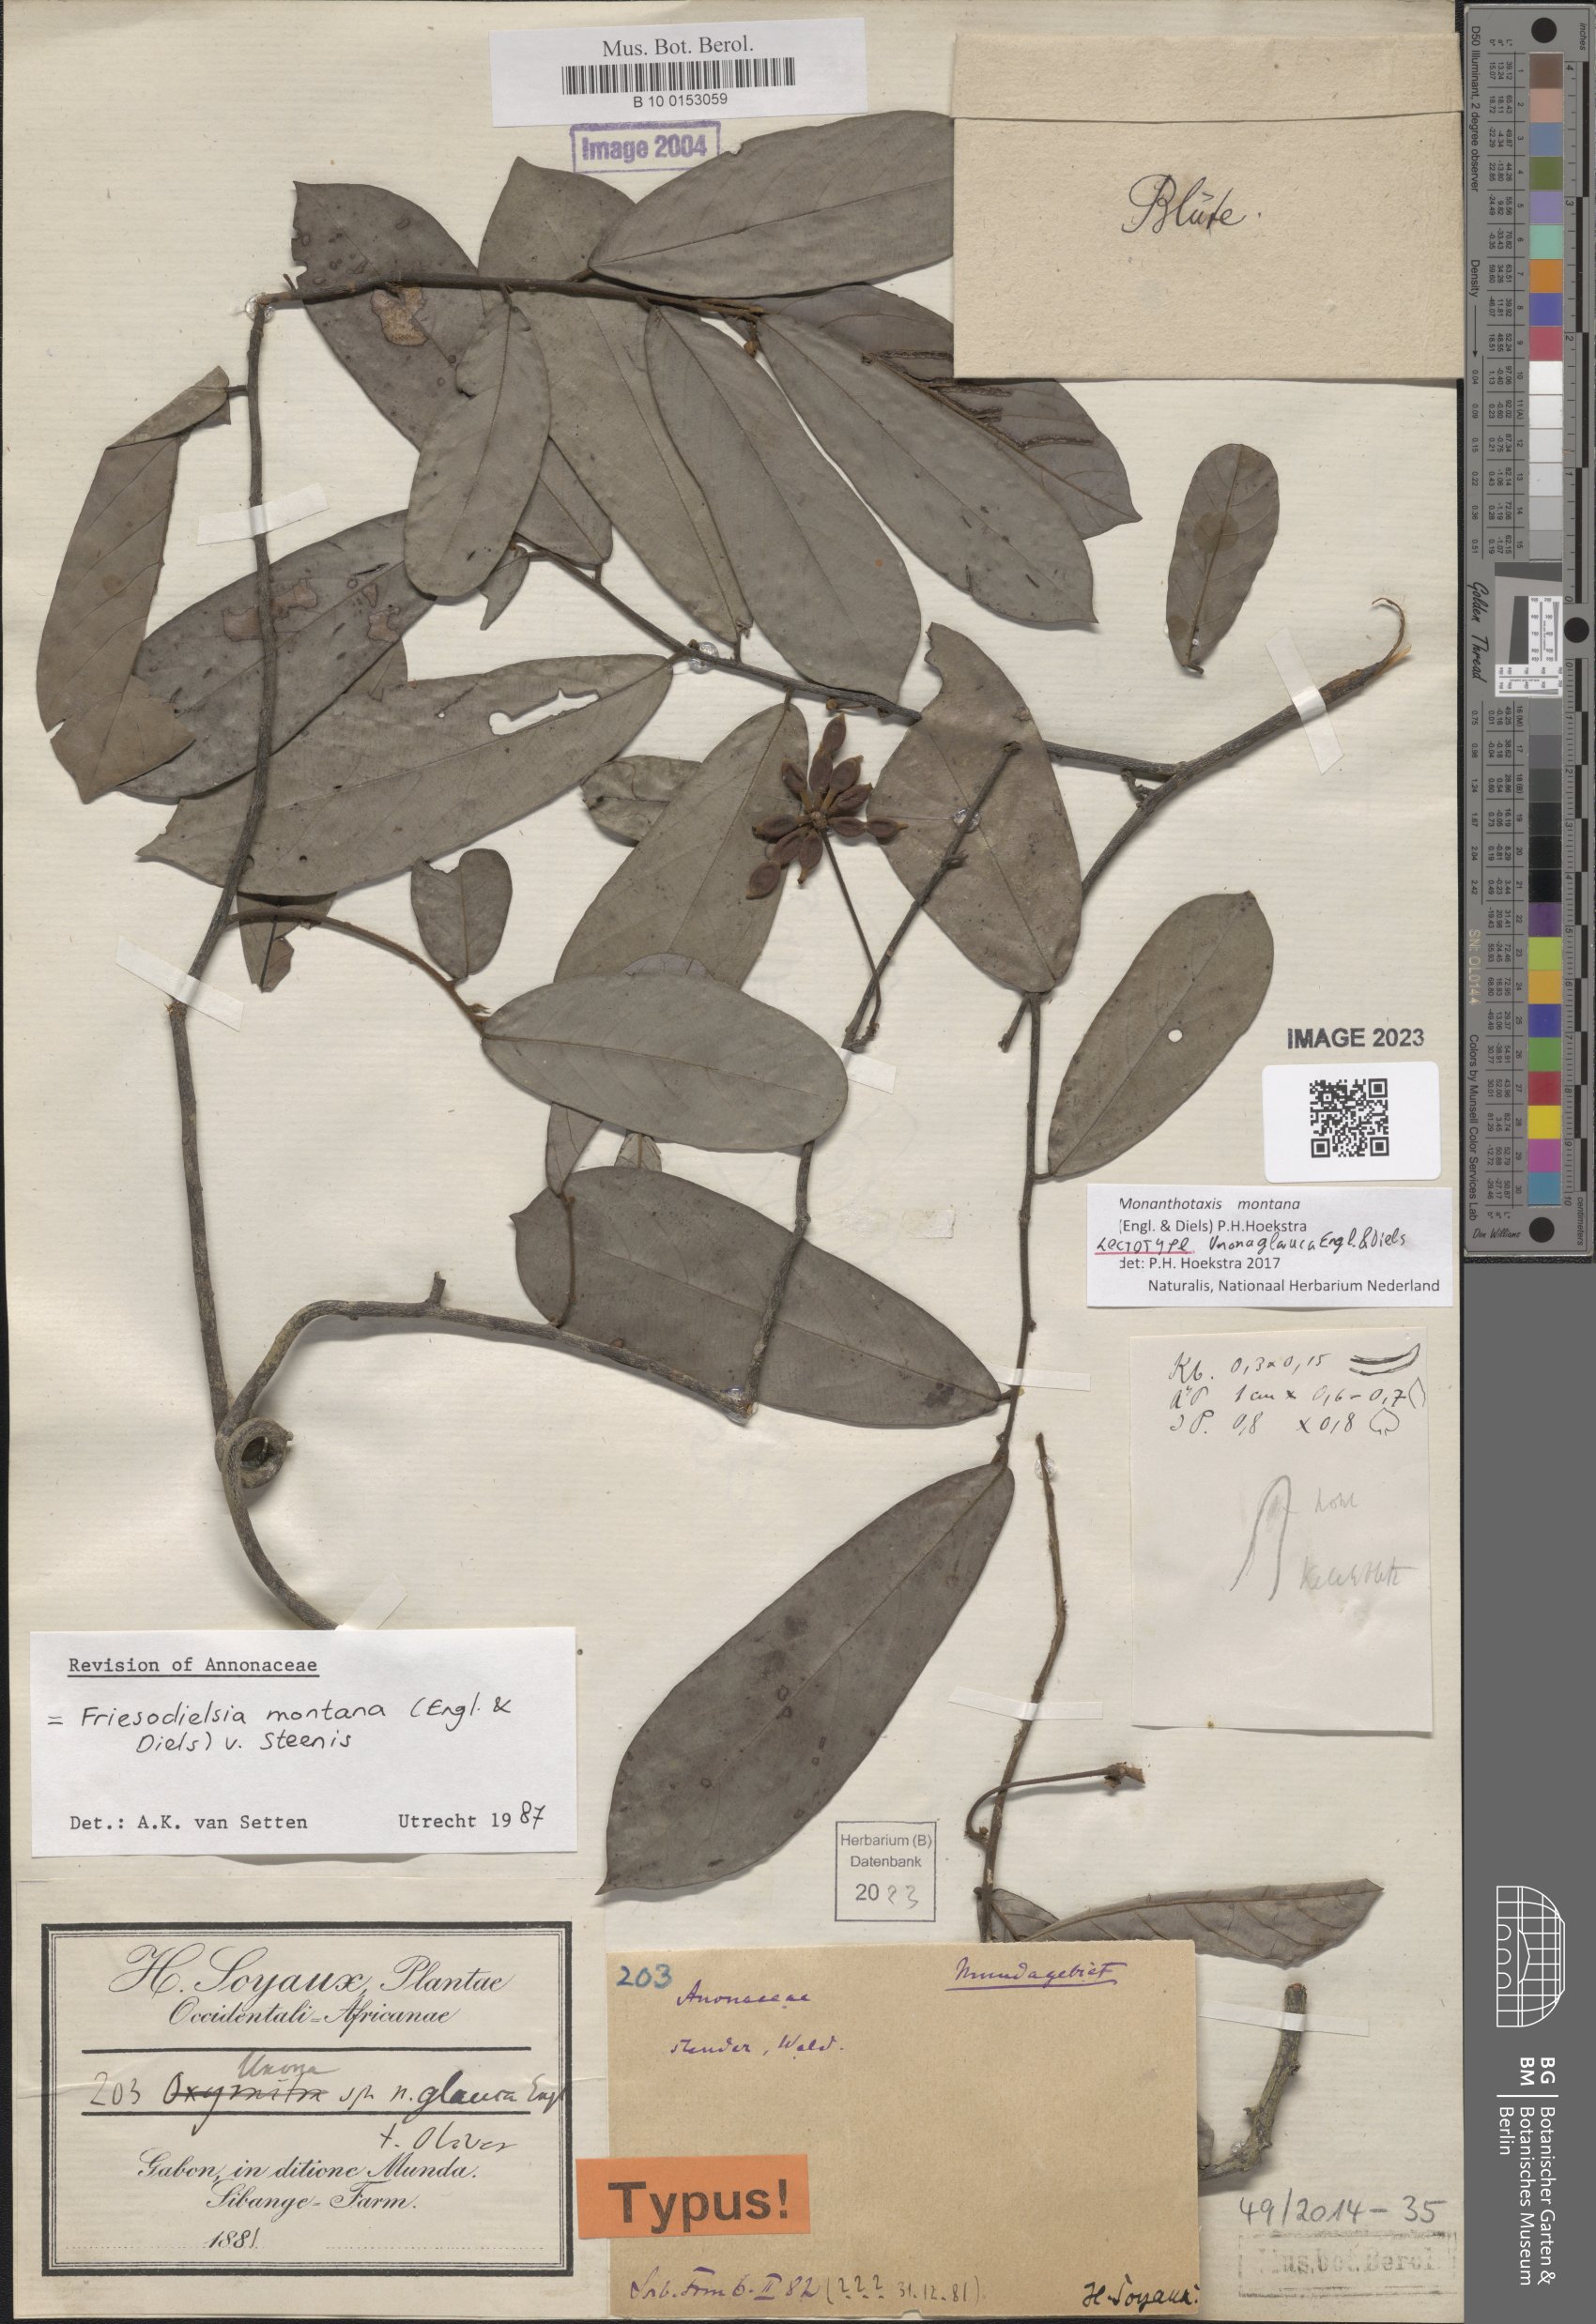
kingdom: Plantae
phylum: Tracheophyta
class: Magnoliopsida
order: Magnoliales
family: Annonaceae
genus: Friesodielsia
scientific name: Friesodielsia montana
